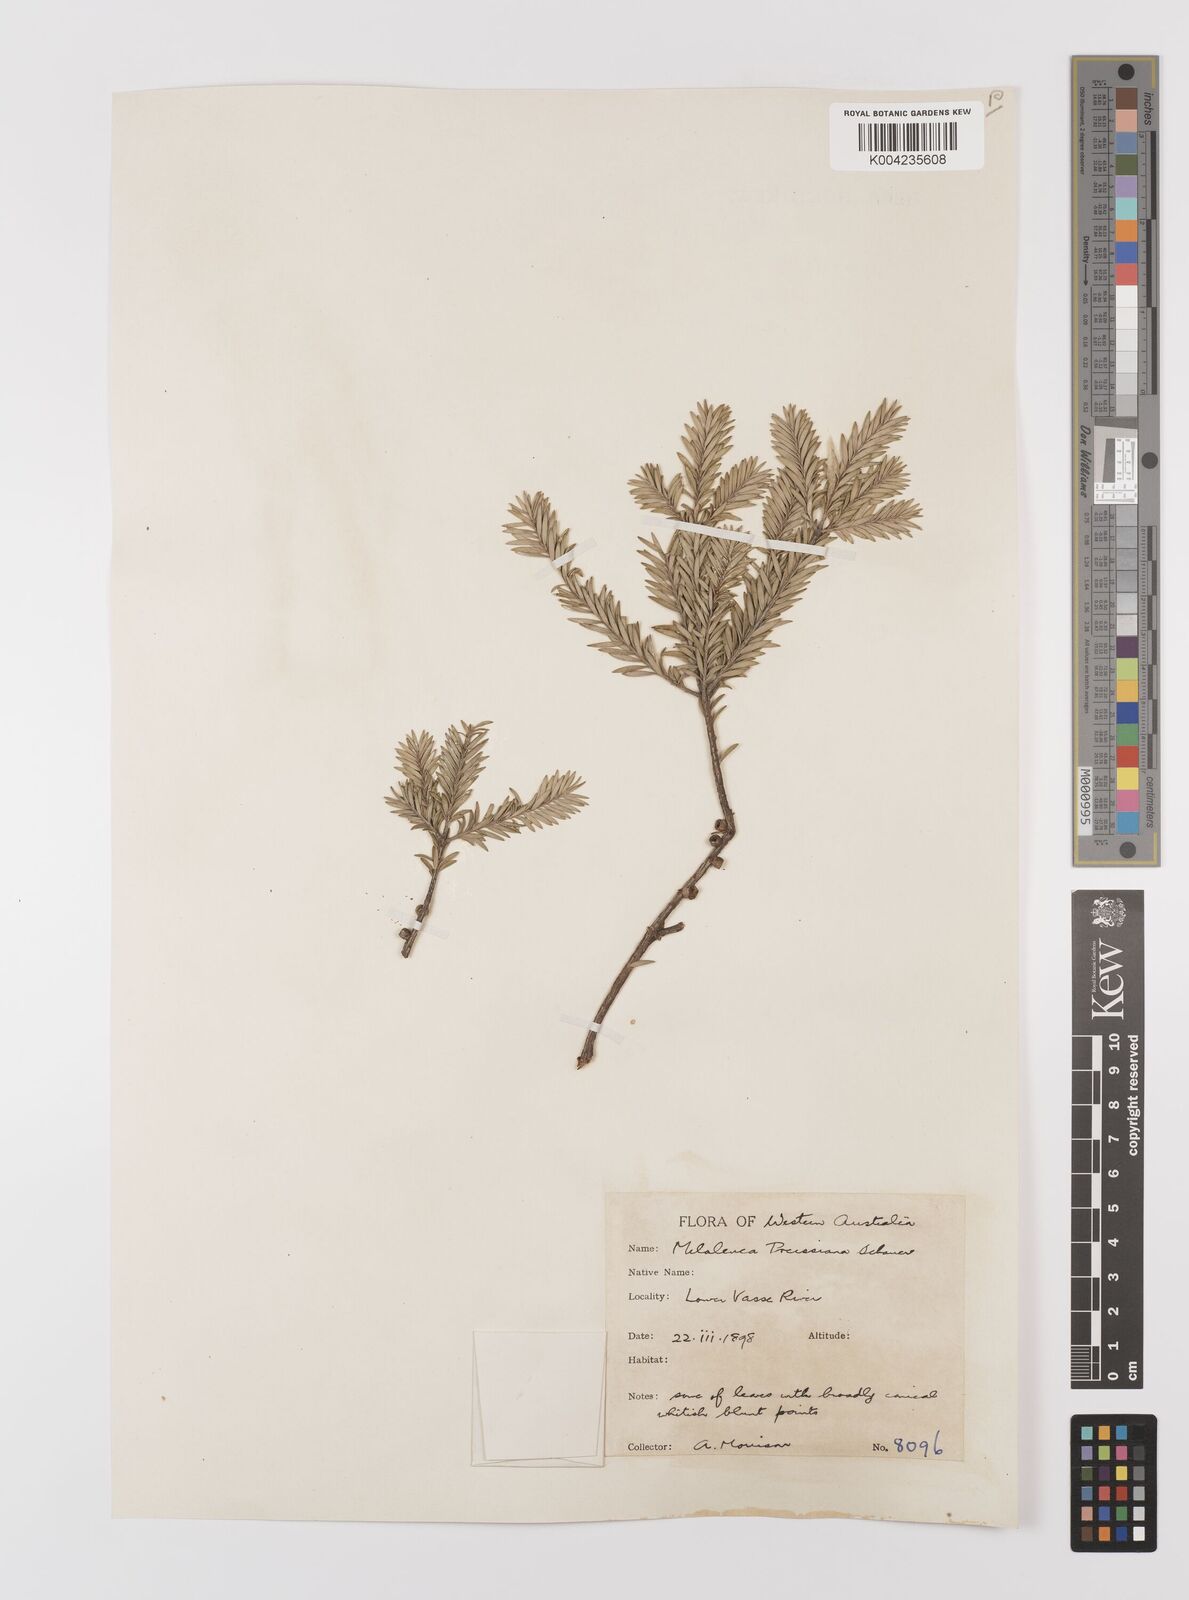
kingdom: Plantae
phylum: Tracheophyta
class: Magnoliopsida
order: Myrtales
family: Myrtaceae
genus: Melaleuca
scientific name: Melaleuca preissiana
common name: Preiss's paperbark
